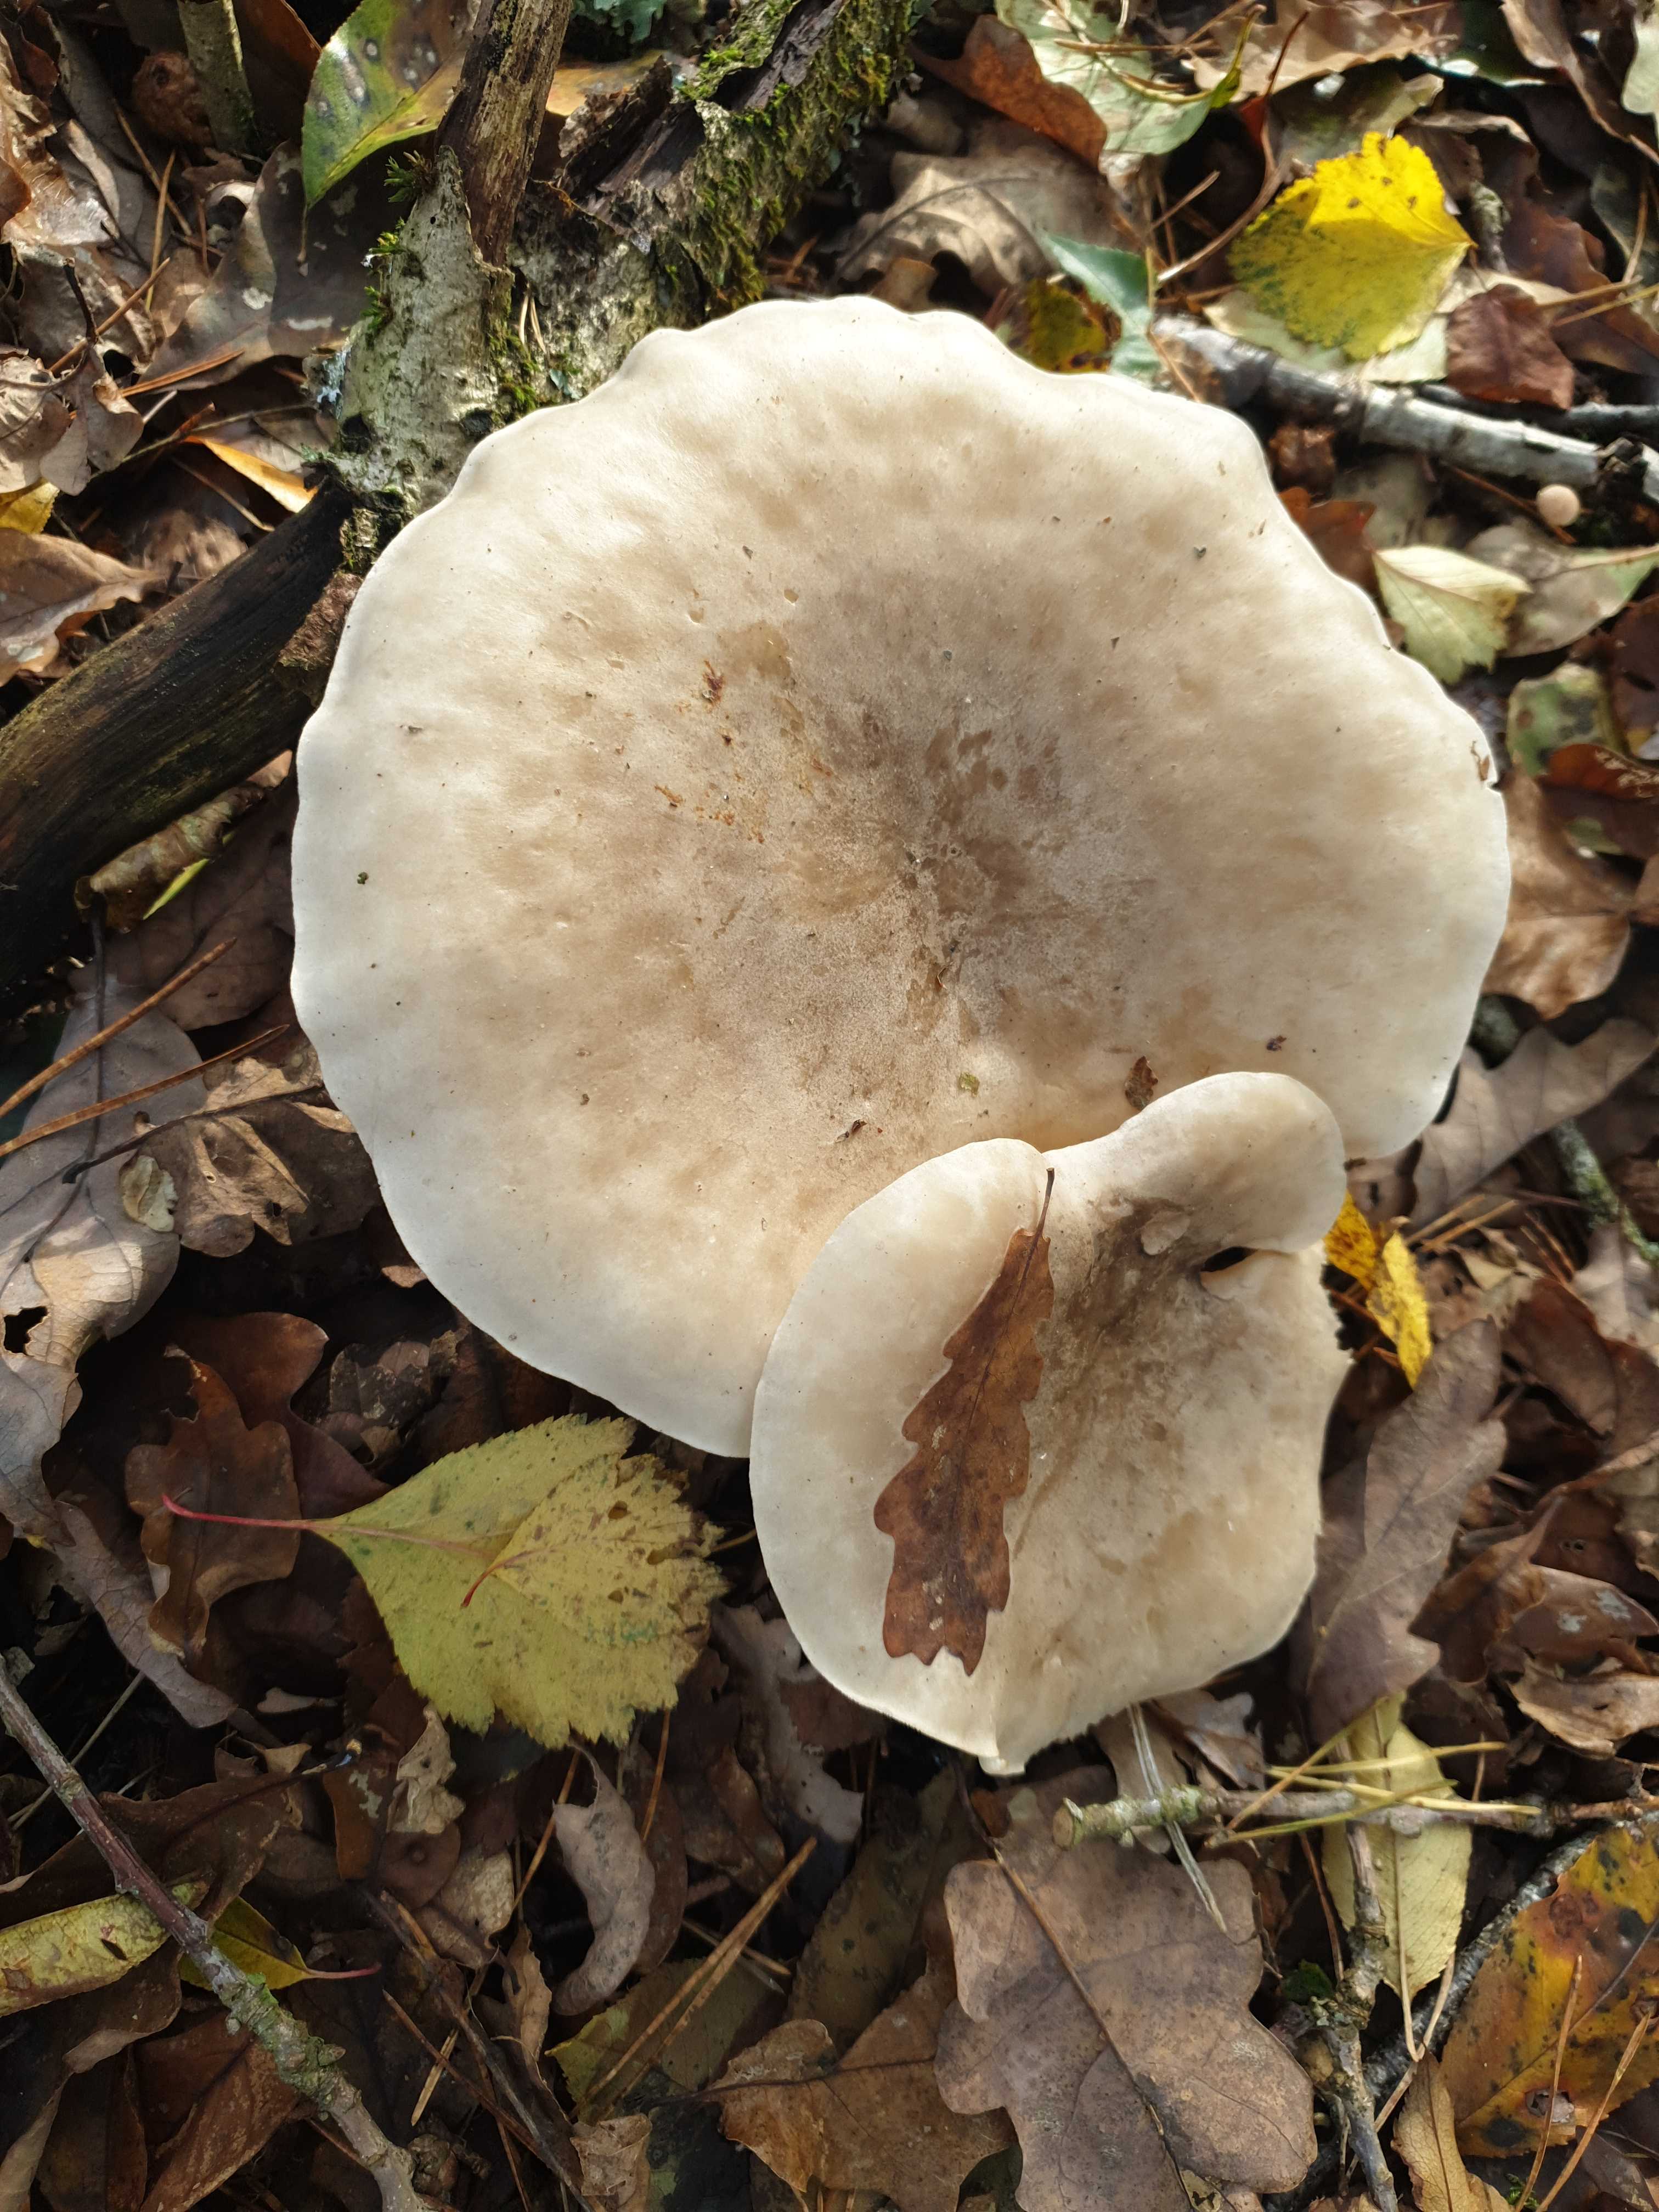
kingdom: Fungi
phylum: Basidiomycota
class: Agaricomycetes
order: Agaricales
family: Tricholomataceae
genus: Clitocybe
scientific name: Clitocybe nebularis
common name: tåge-tragthat
